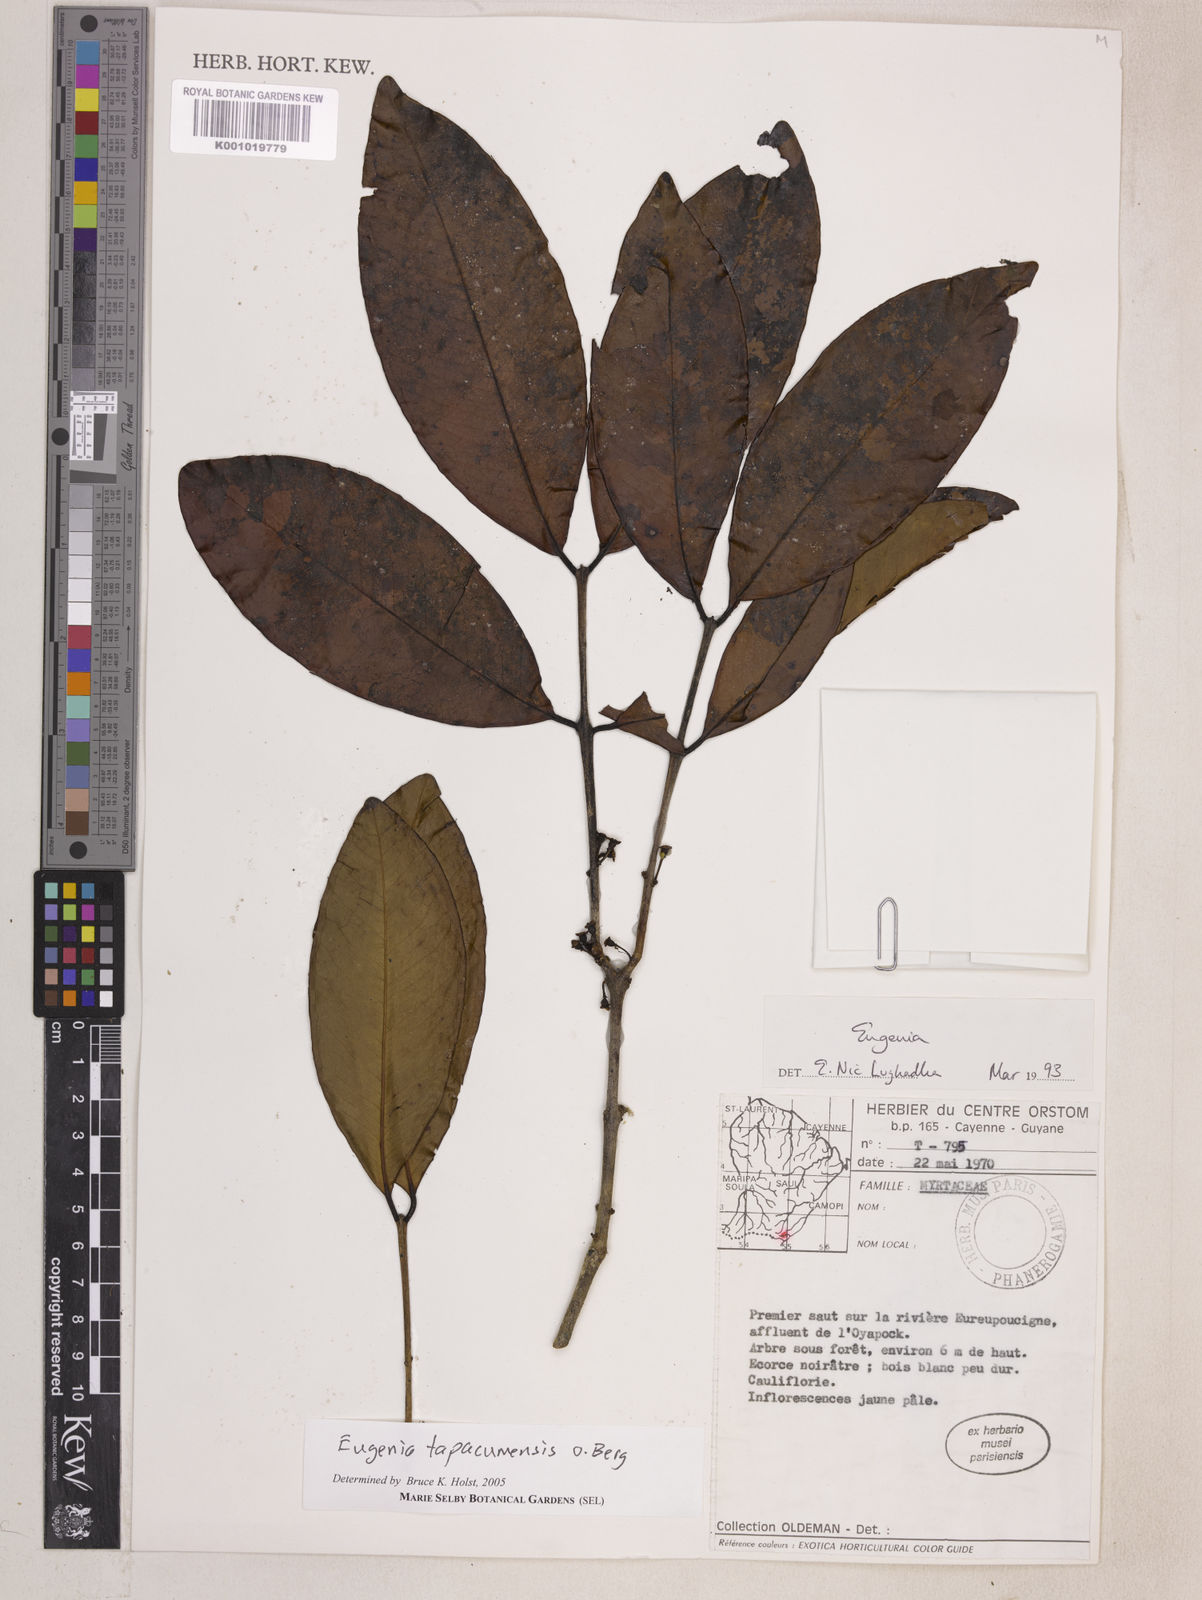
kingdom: Plantae
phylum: Tracheophyta
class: Magnoliopsida
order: Myrtales
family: Myrtaceae
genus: Eugenia
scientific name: Eugenia stictopetala
